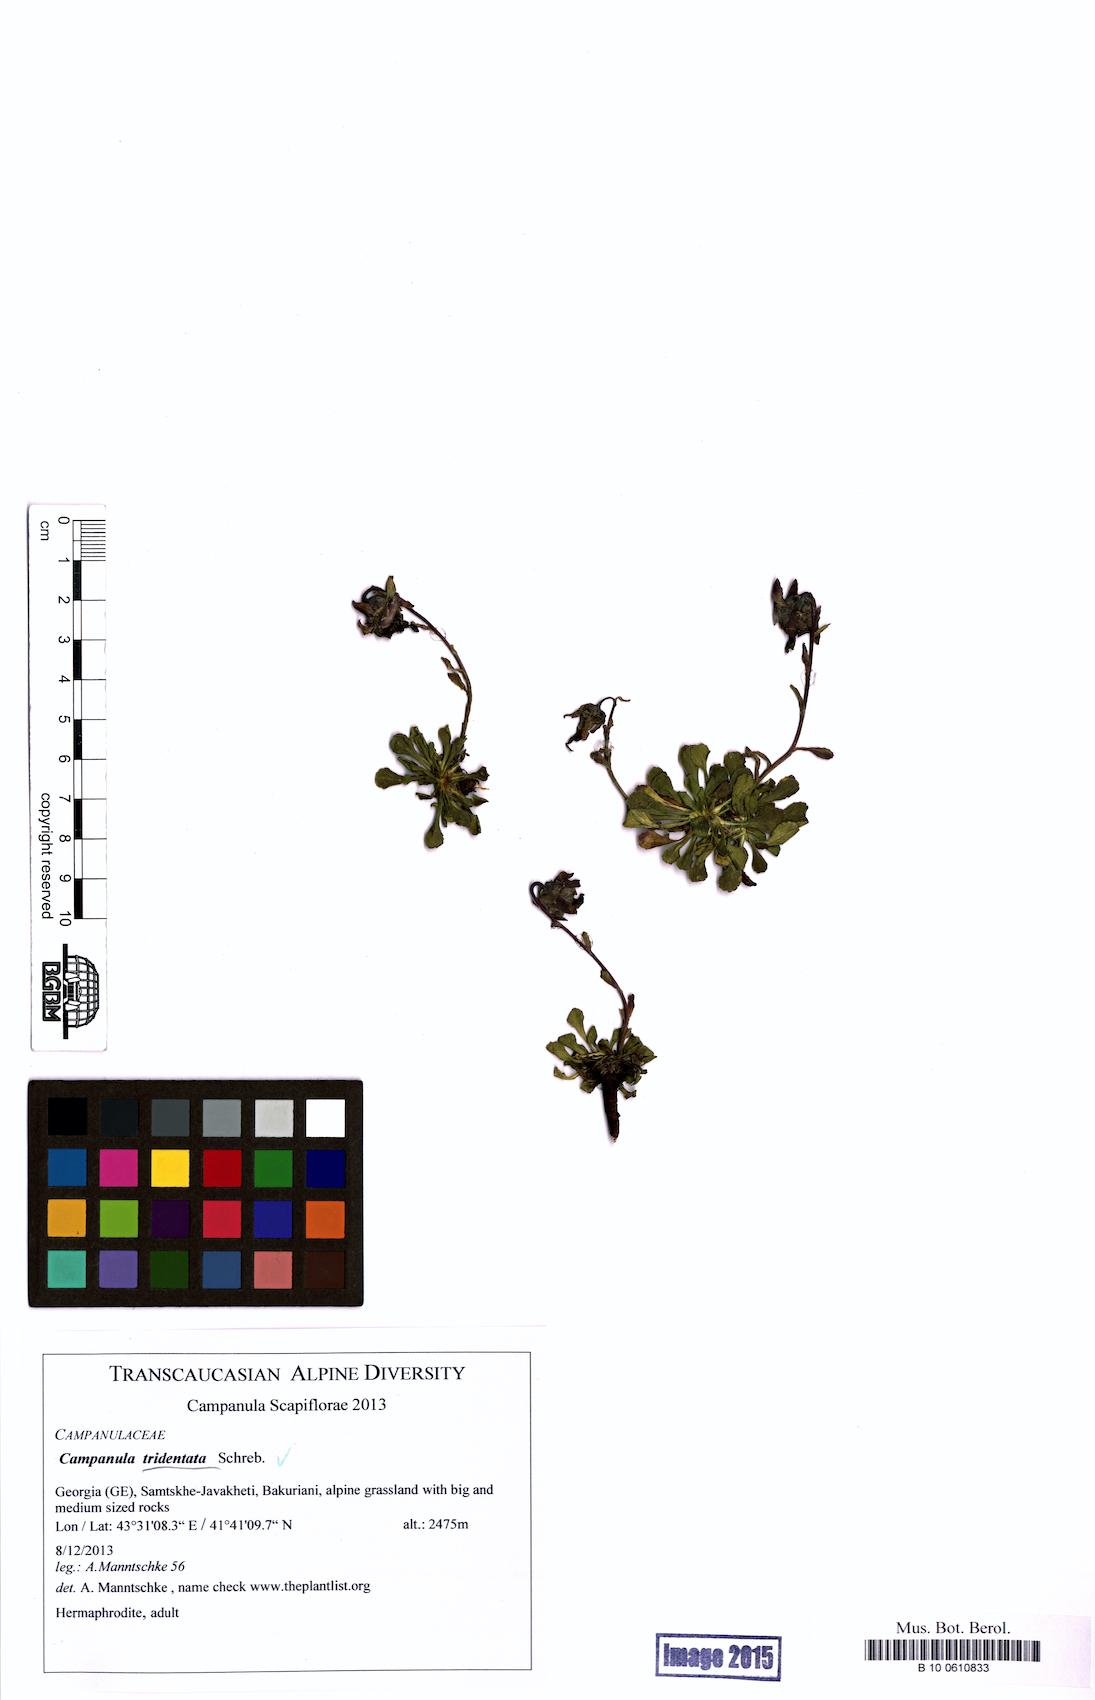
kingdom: Plantae
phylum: Tracheophyta
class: Magnoliopsida
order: Asterales
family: Campanulaceae
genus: Campanula
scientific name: Campanula tridentata
